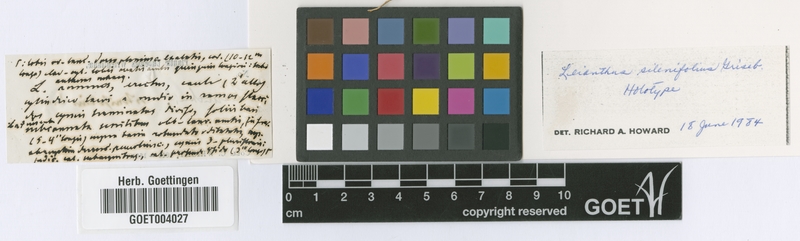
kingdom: Plantae
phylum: Tracheophyta
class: Magnoliopsida
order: Gentianales
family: Gentianaceae
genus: Lisianthus
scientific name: Lisianthus silenifolius
